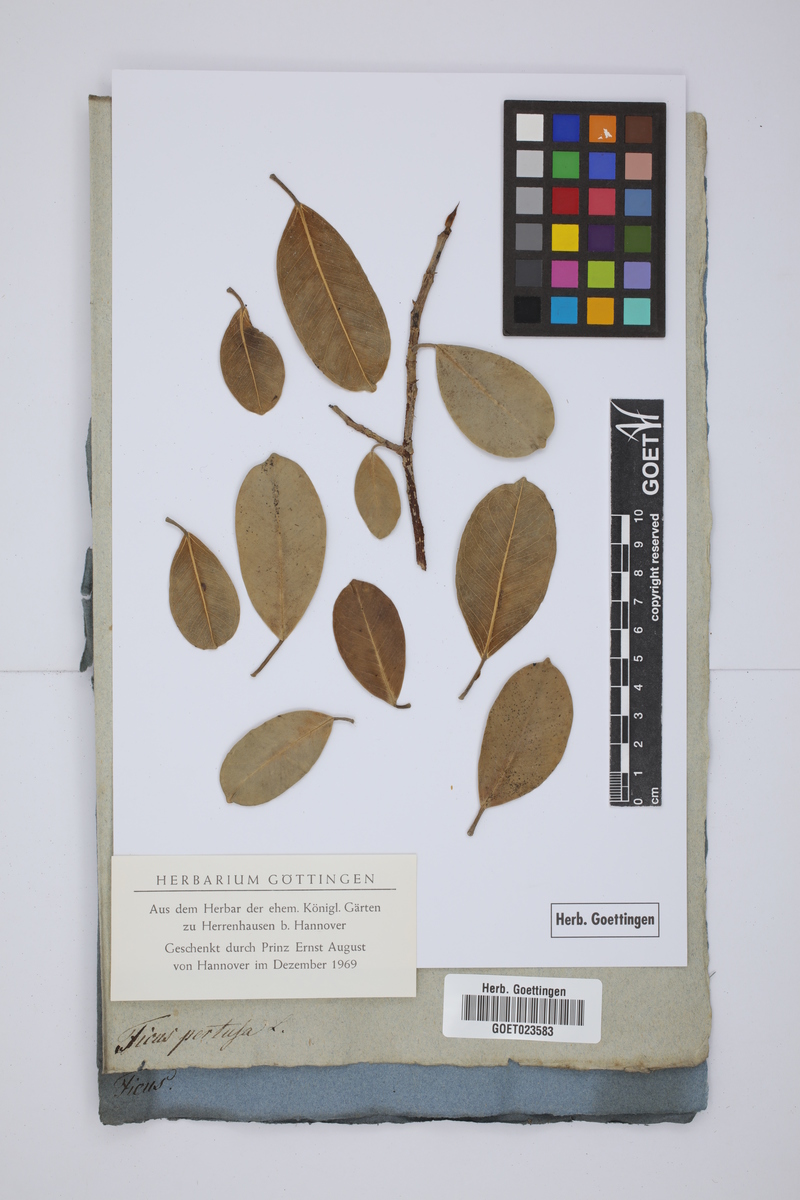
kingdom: Plantae
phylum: Tracheophyta
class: Magnoliopsida
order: Rosales
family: Moraceae
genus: Ficus
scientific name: Ficus pertusa
